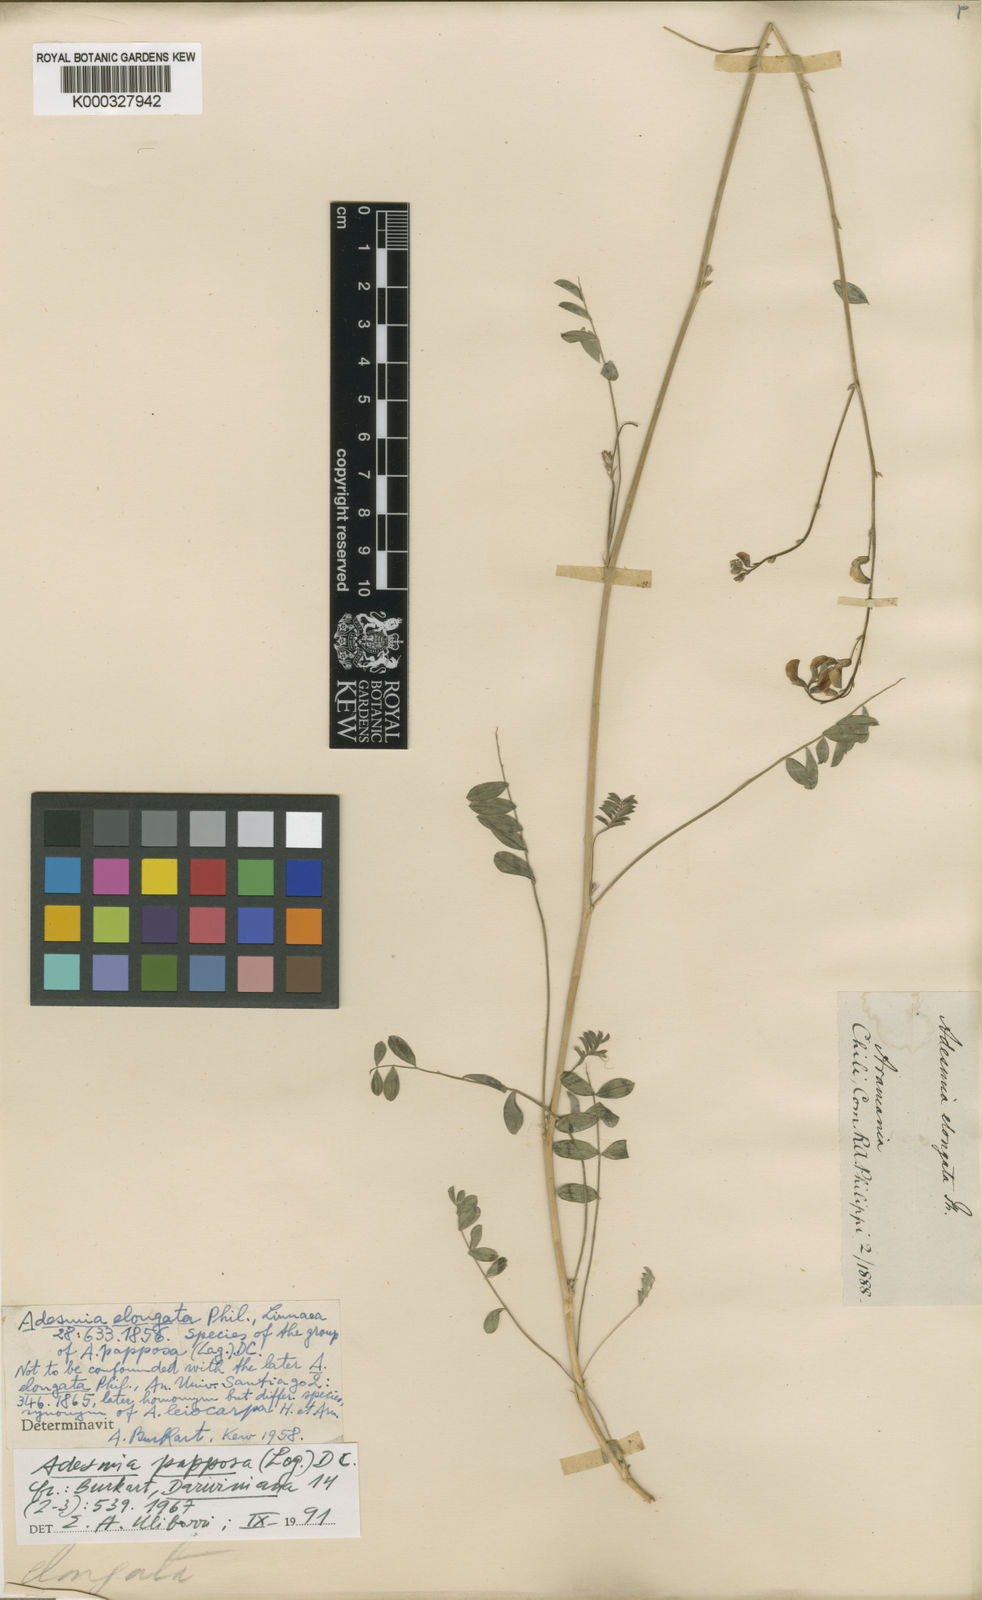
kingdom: Plantae
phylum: Tracheophyta
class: Magnoliopsida
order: Fabales
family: Fabaceae
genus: Adesmia
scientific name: Adesmia leiocarpa
